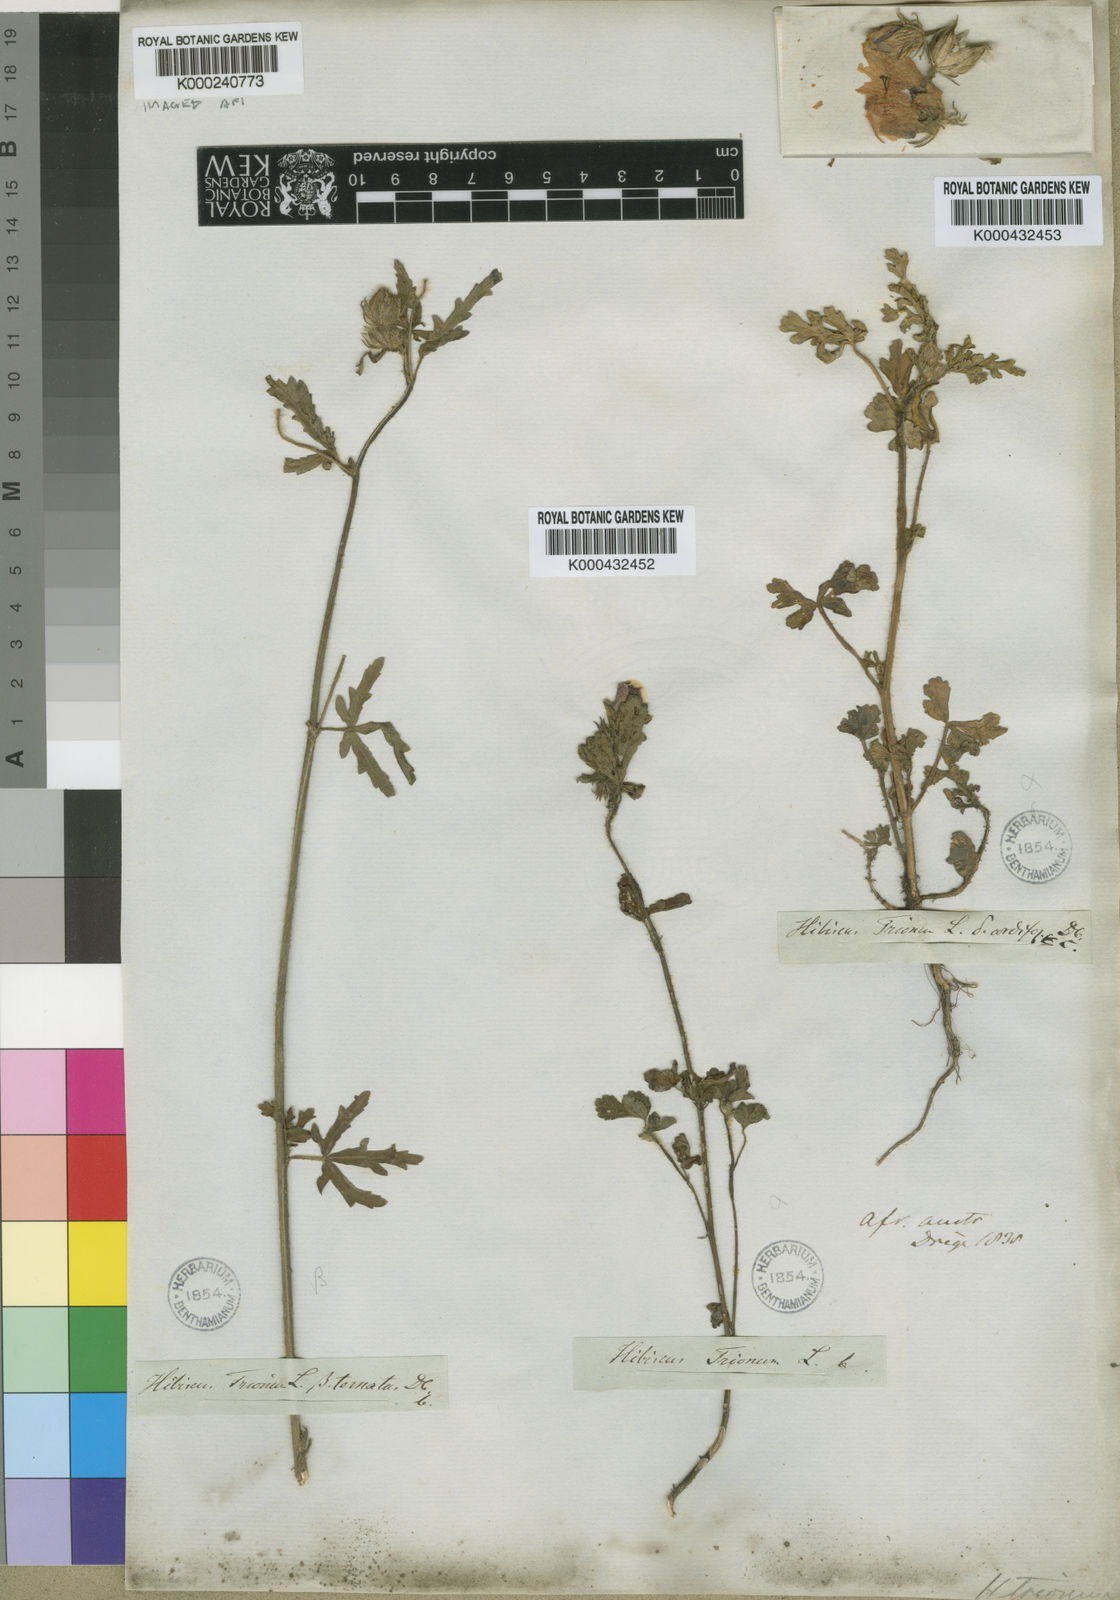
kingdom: Plantae
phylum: Tracheophyta
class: Magnoliopsida
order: Malvales
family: Malvaceae
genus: Hibiscus
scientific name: Hibiscus trionum
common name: Bladder ketmia
